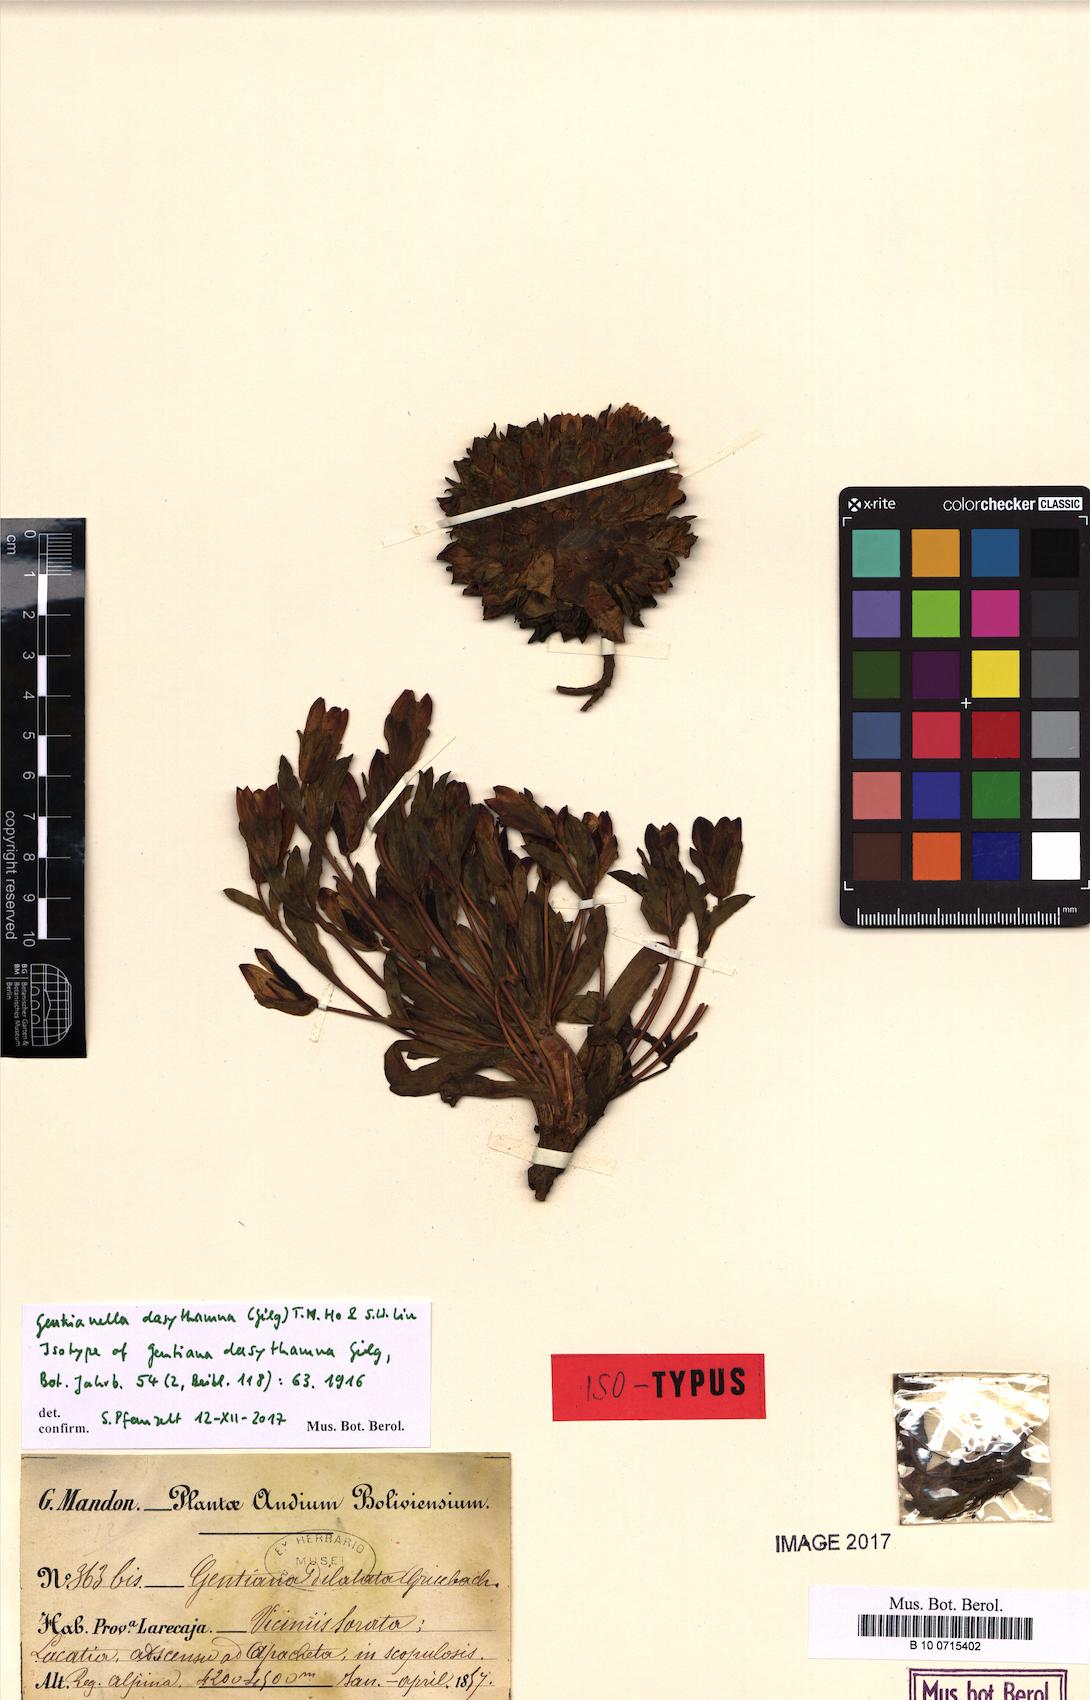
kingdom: Plantae
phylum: Tracheophyta
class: Magnoliopsida
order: Gentianales
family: Gentianaceae
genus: Gentianella
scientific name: Gentianella dasythamna
